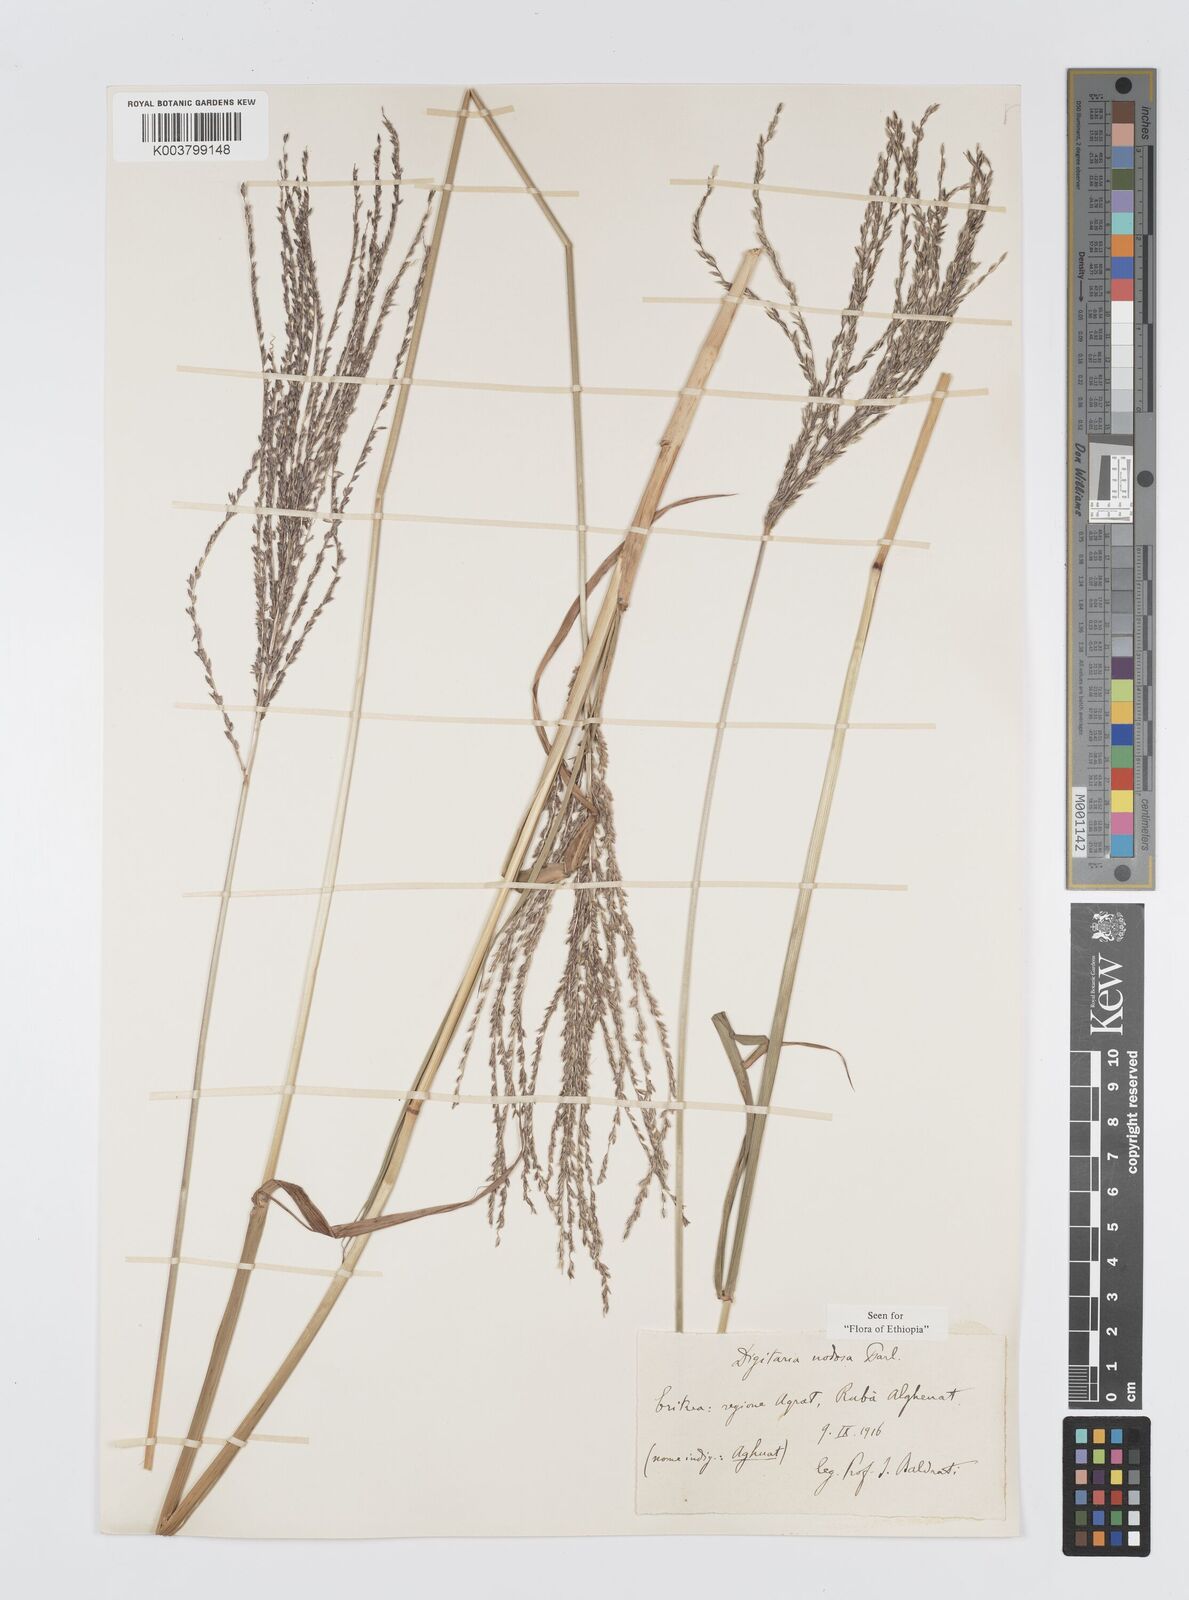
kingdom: Plantae
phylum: Tracheophyta
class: Liliopsida
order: Poales
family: Poaceae
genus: Digitaria
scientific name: Digitaria nodosa
